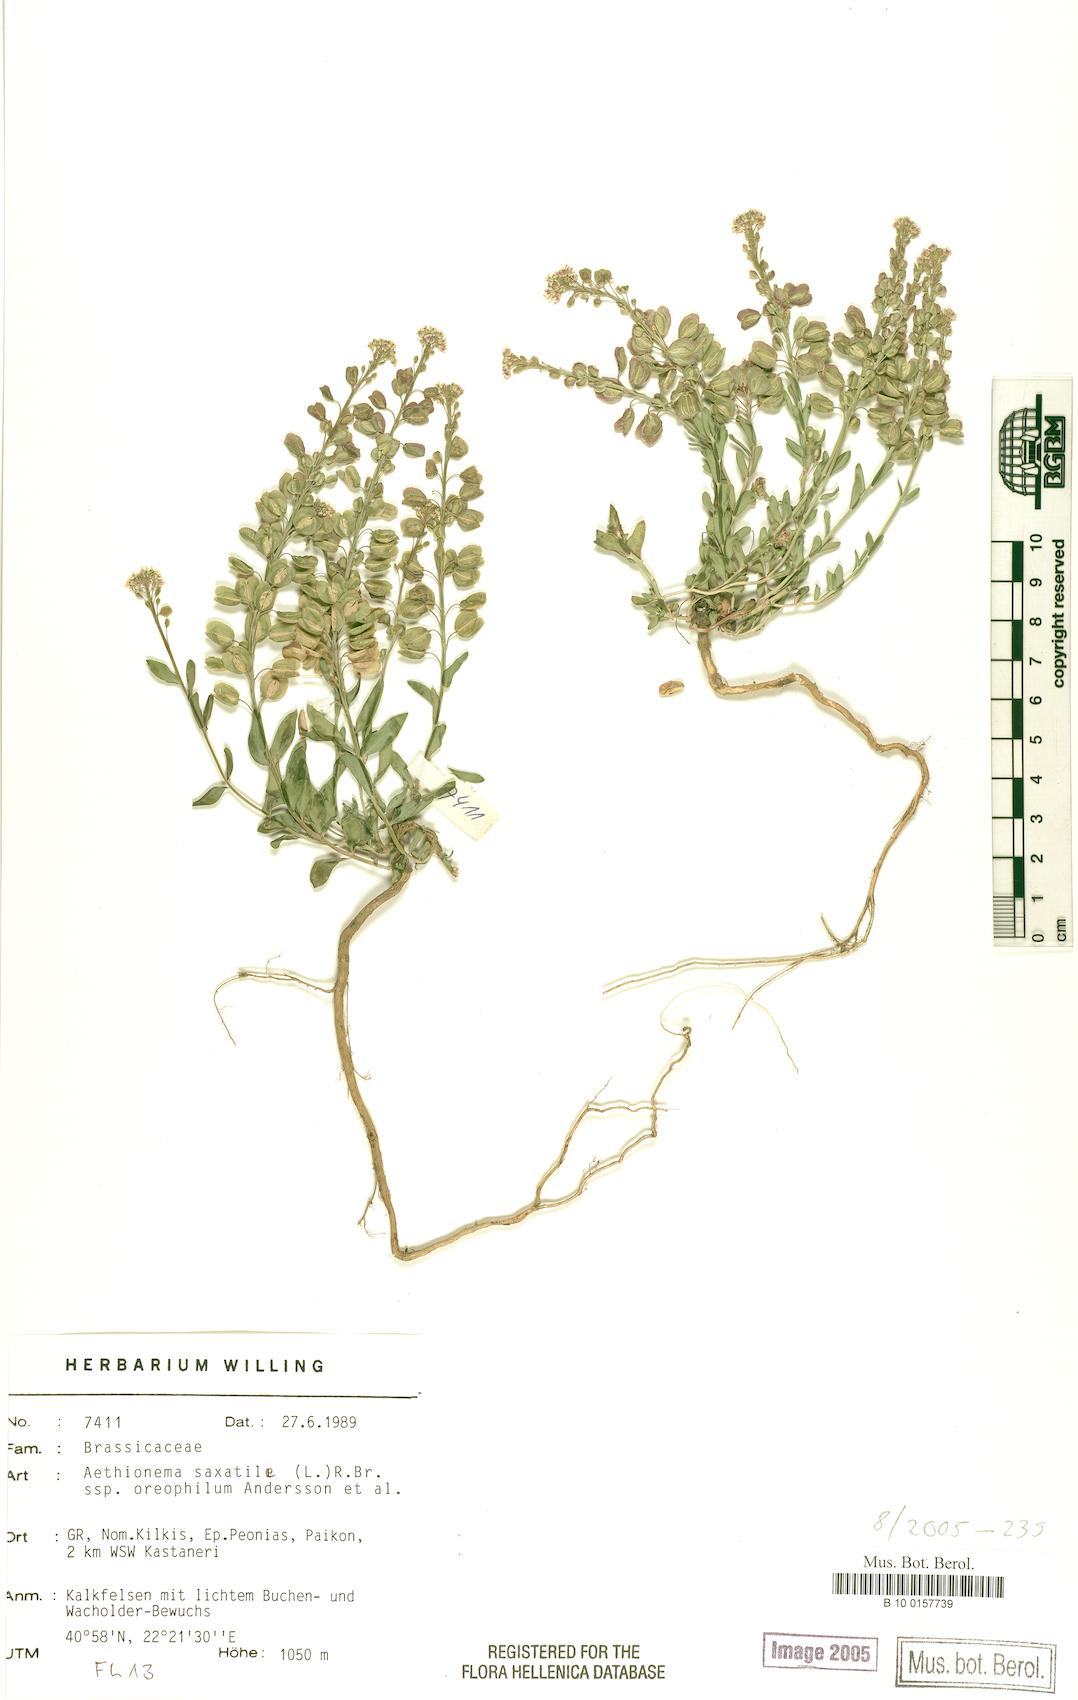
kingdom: Plantae
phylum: Tracheophyta
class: Magnoliopsida
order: Brassicales
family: Brassicaceae
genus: Aethionema
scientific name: Aethionema saxatile
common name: Burnt candytuft
